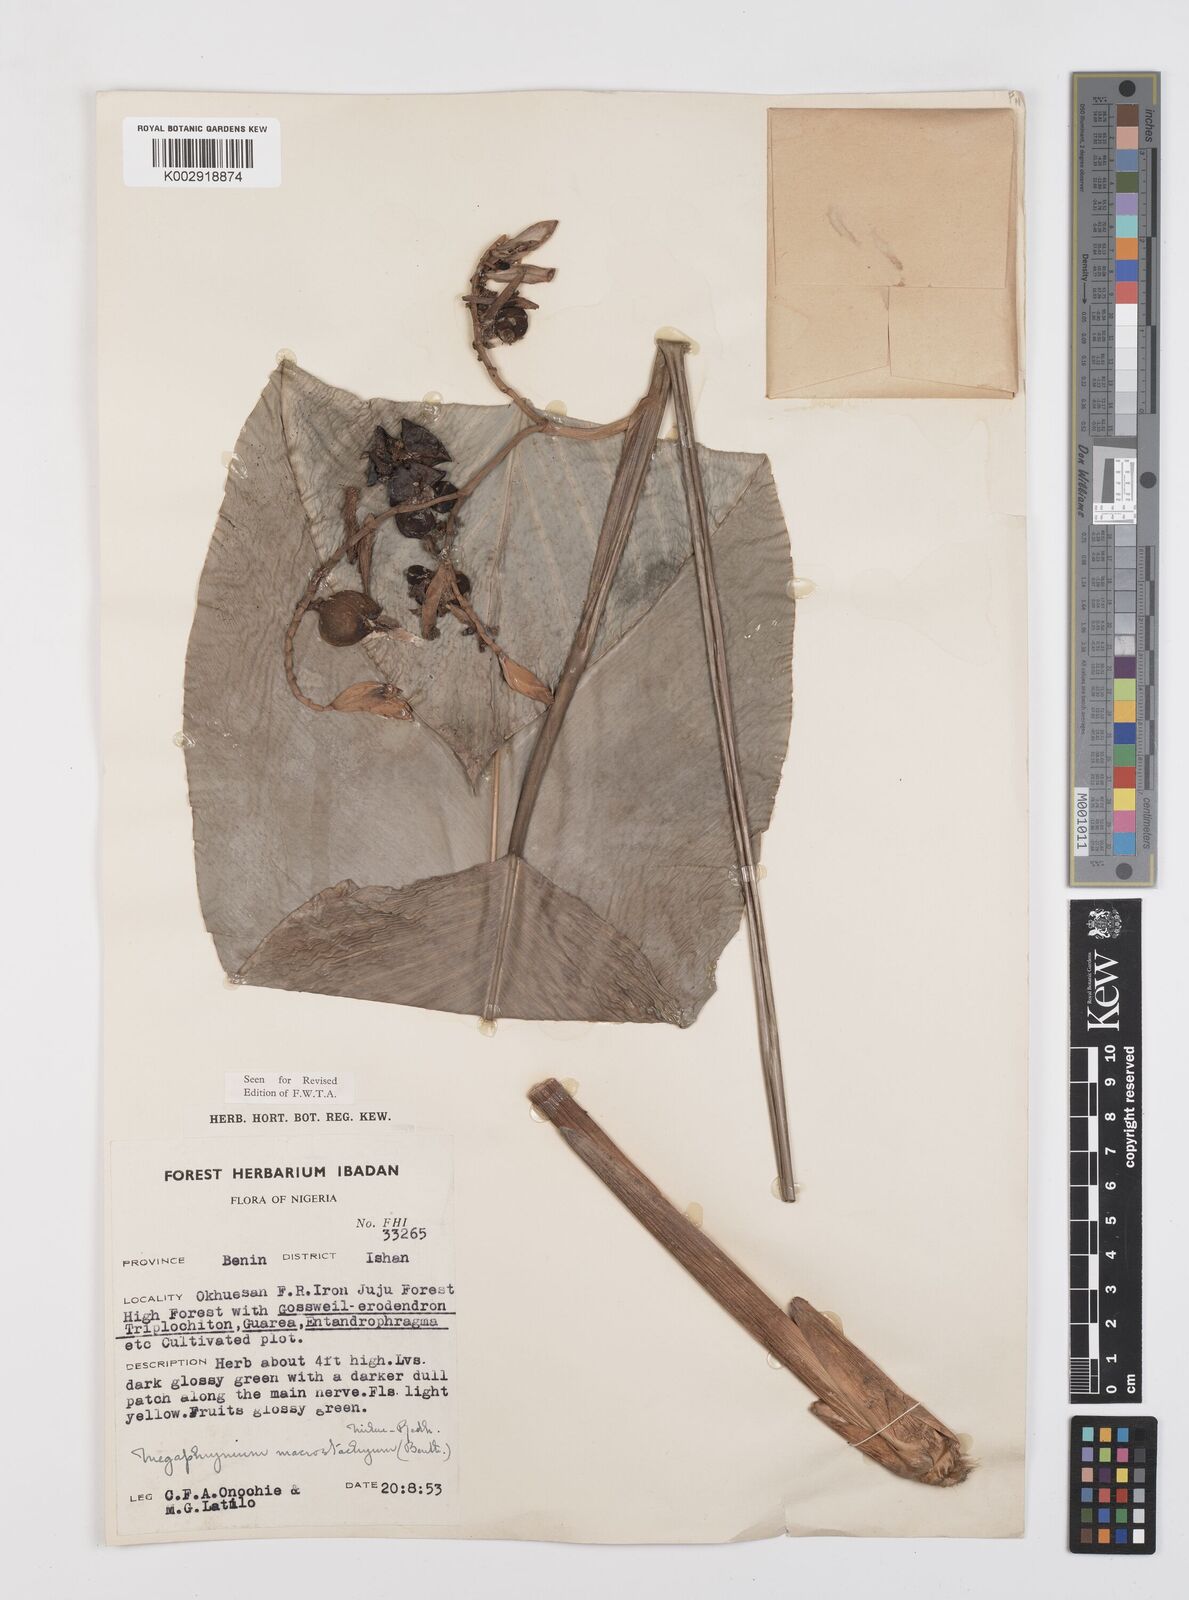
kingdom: Plantae
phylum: Tracheophyta
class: Liliopsida
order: Zingiberales
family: Marantaceae
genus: Megaphrynium
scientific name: Megaphrynium macrostachyum
